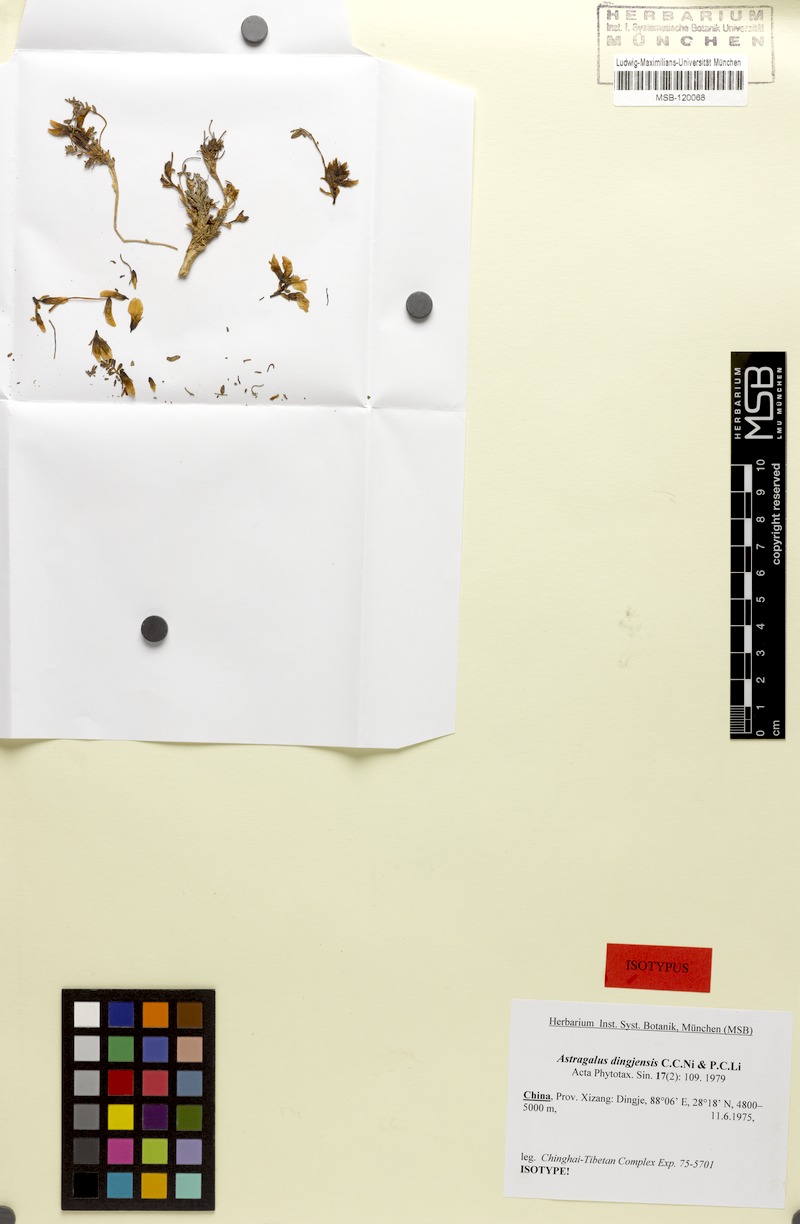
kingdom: Plantae
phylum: Tracheophyta
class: Magnoliopsida
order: Fabales
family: Fabaceae
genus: Astragalus
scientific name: Astragalus dingjiensis
